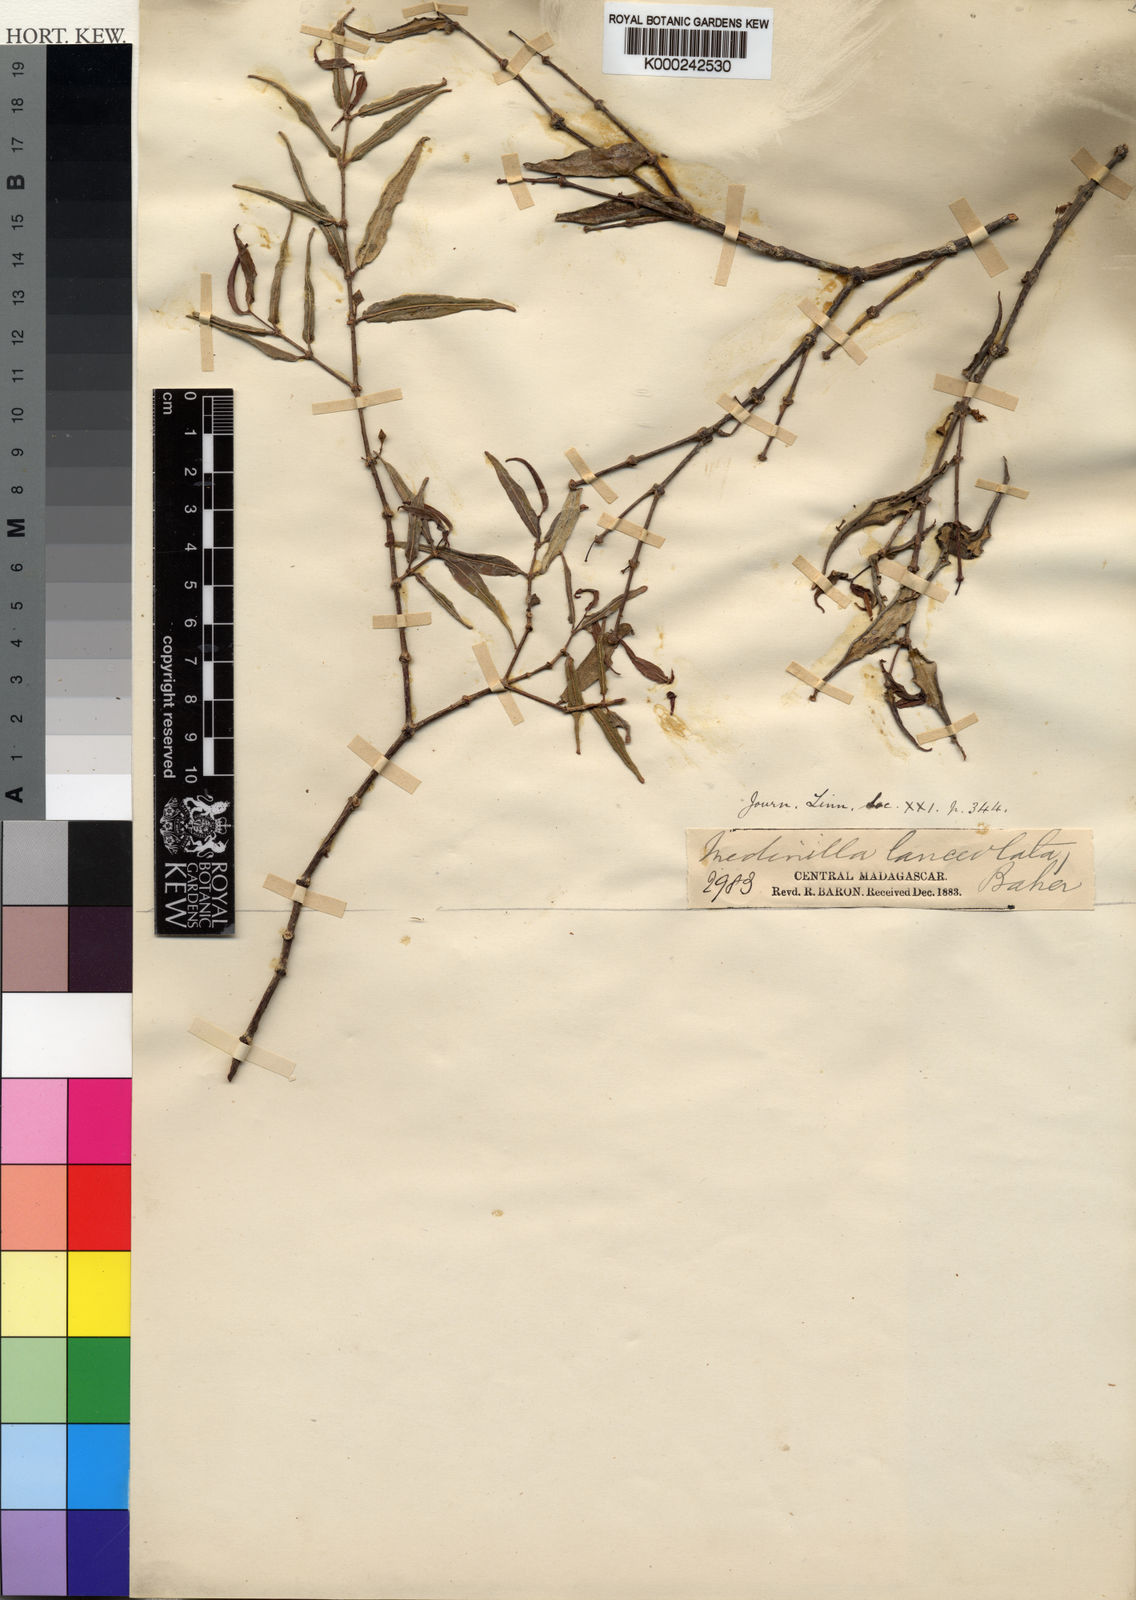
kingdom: Plantae
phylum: Tracheophyta
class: Magnoliopsida
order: Myrtales
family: Melastomataceae
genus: Medinilla
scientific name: Medinilla lanceolata
